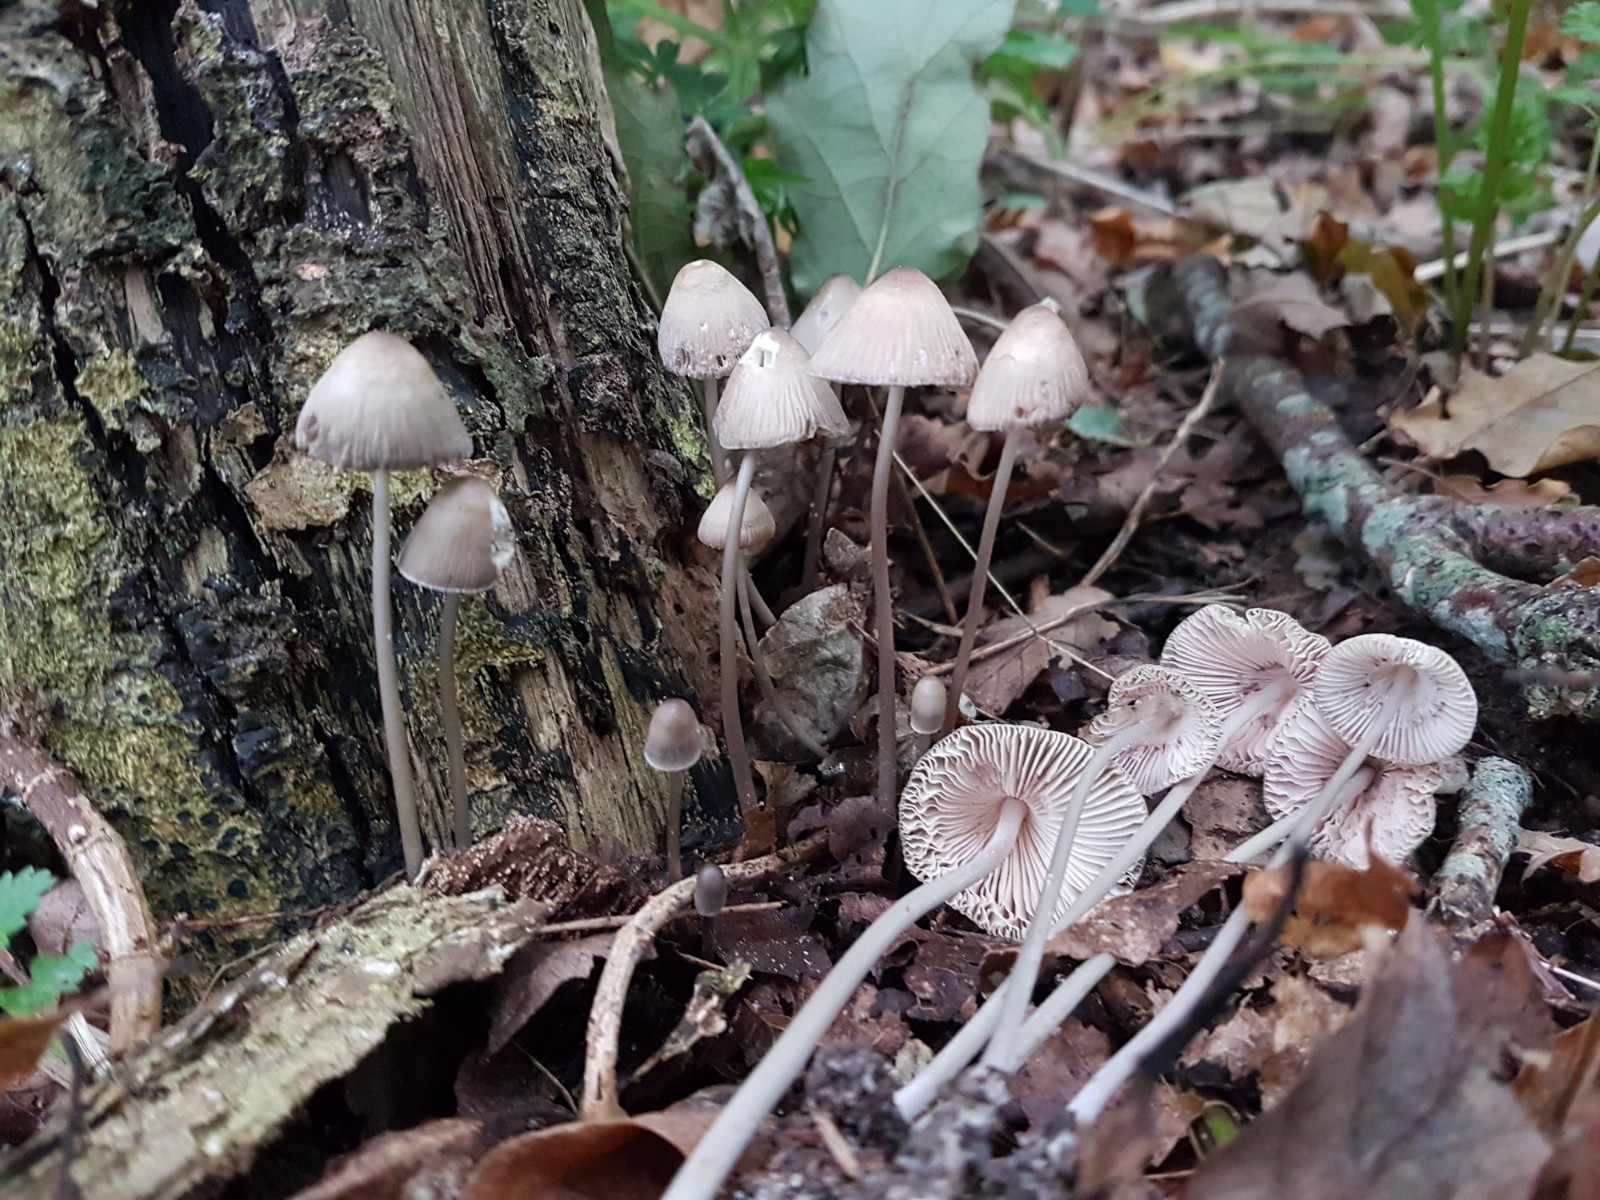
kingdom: Fungi
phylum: Basidiomycota
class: Agaricomycetes
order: Agaricales
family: Mycenaceae
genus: Mycena
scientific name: Mycena galericulata
